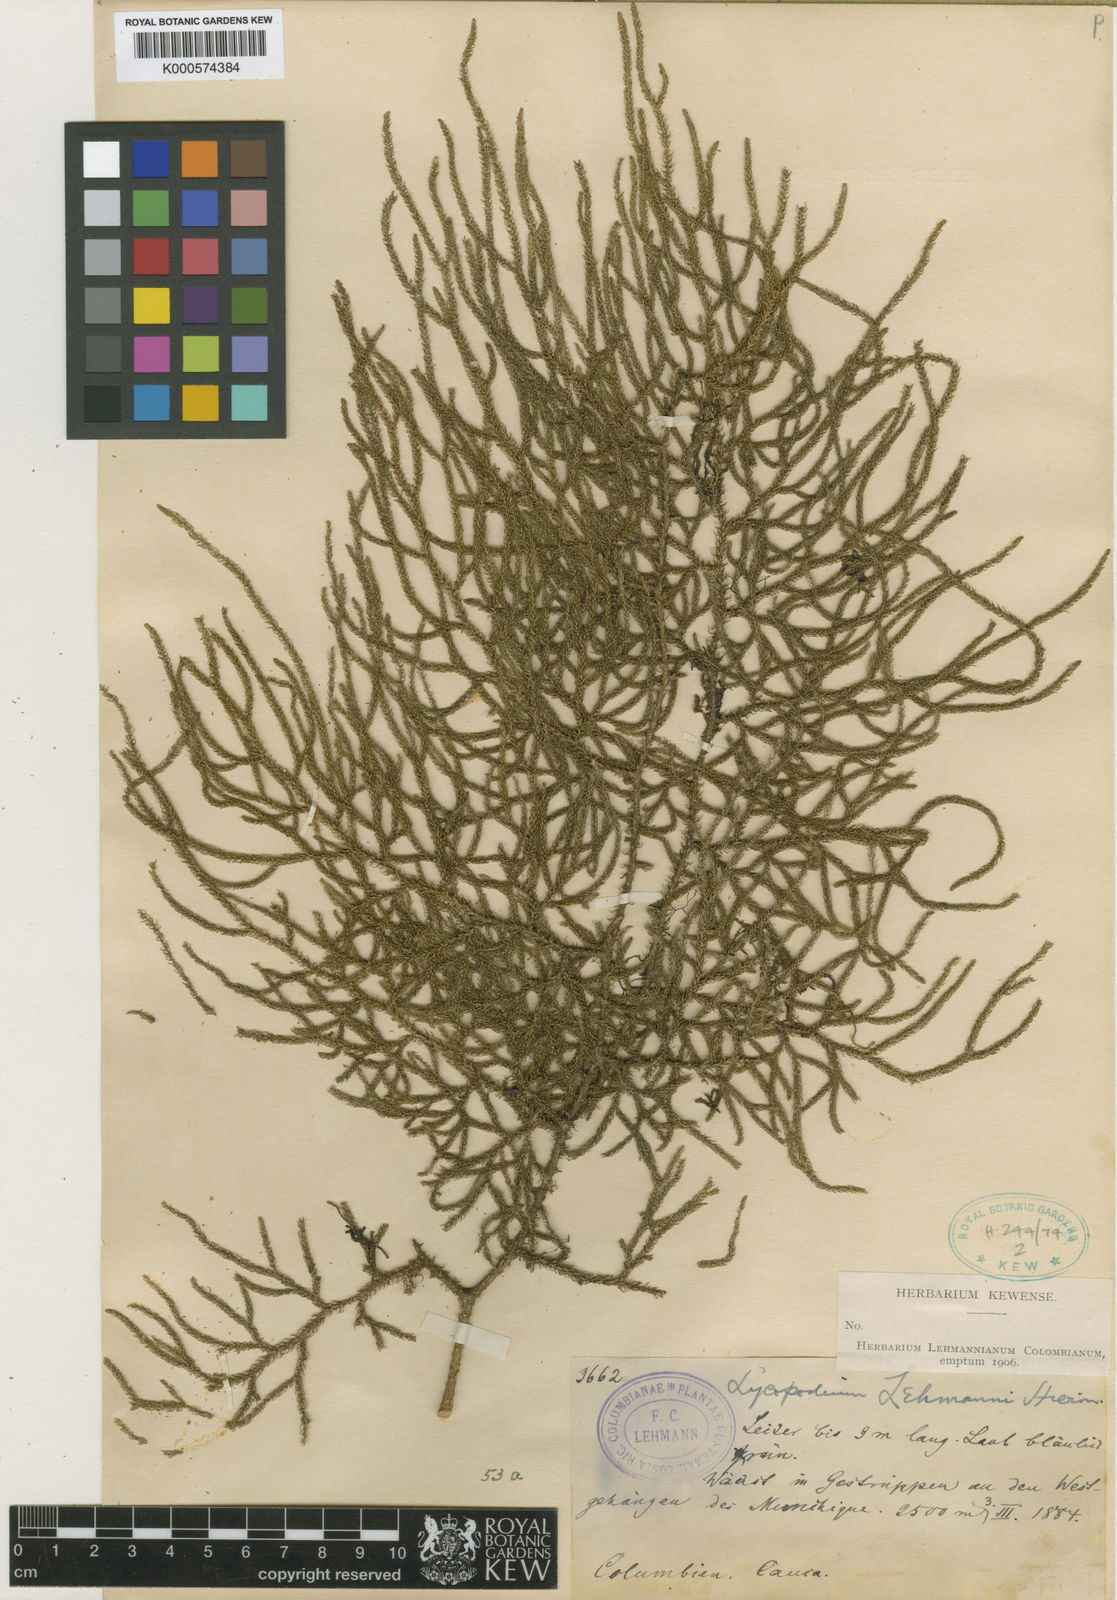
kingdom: Plantae
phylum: Tracheophyta
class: Lycopodiopsida
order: Lycopodiales
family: Lycopodiaceae
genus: Palhinhaea
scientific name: Palhinhaea lehmannii
